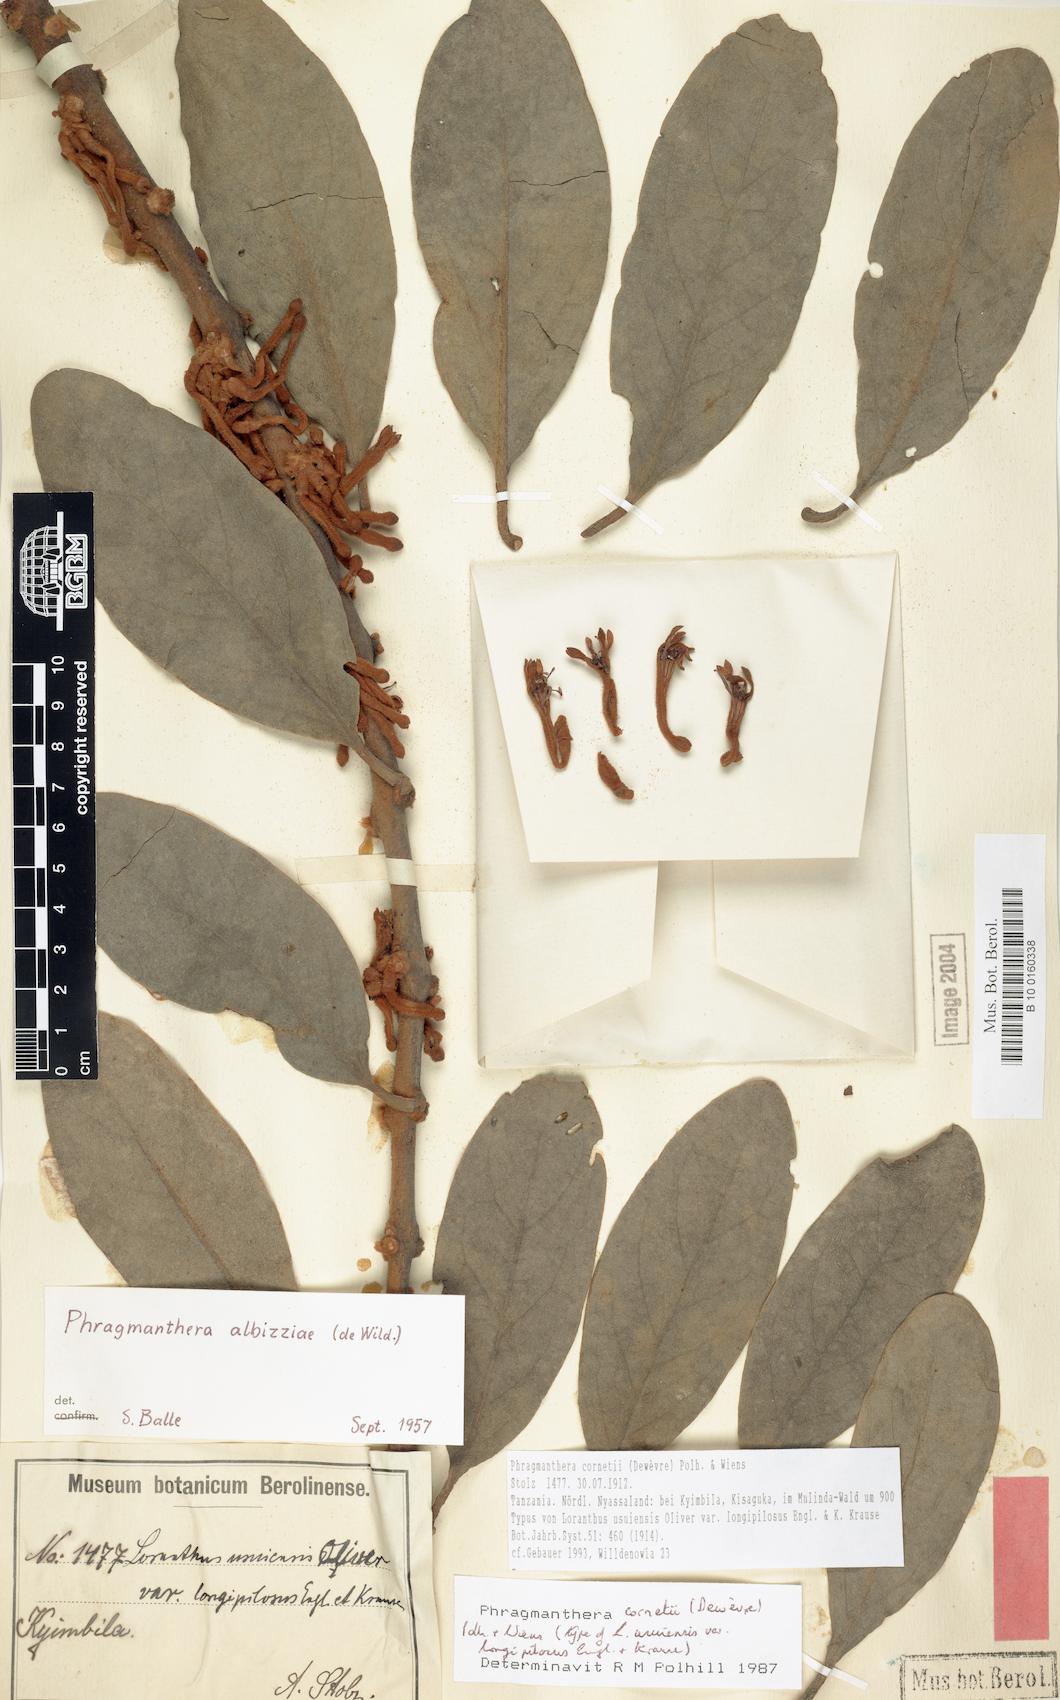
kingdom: Plantae
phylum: Tracheophyta
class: Magnoliopsida
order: Santalales
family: Loranthaceae
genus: Phragmanthera
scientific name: Phragmanthera cornetii
